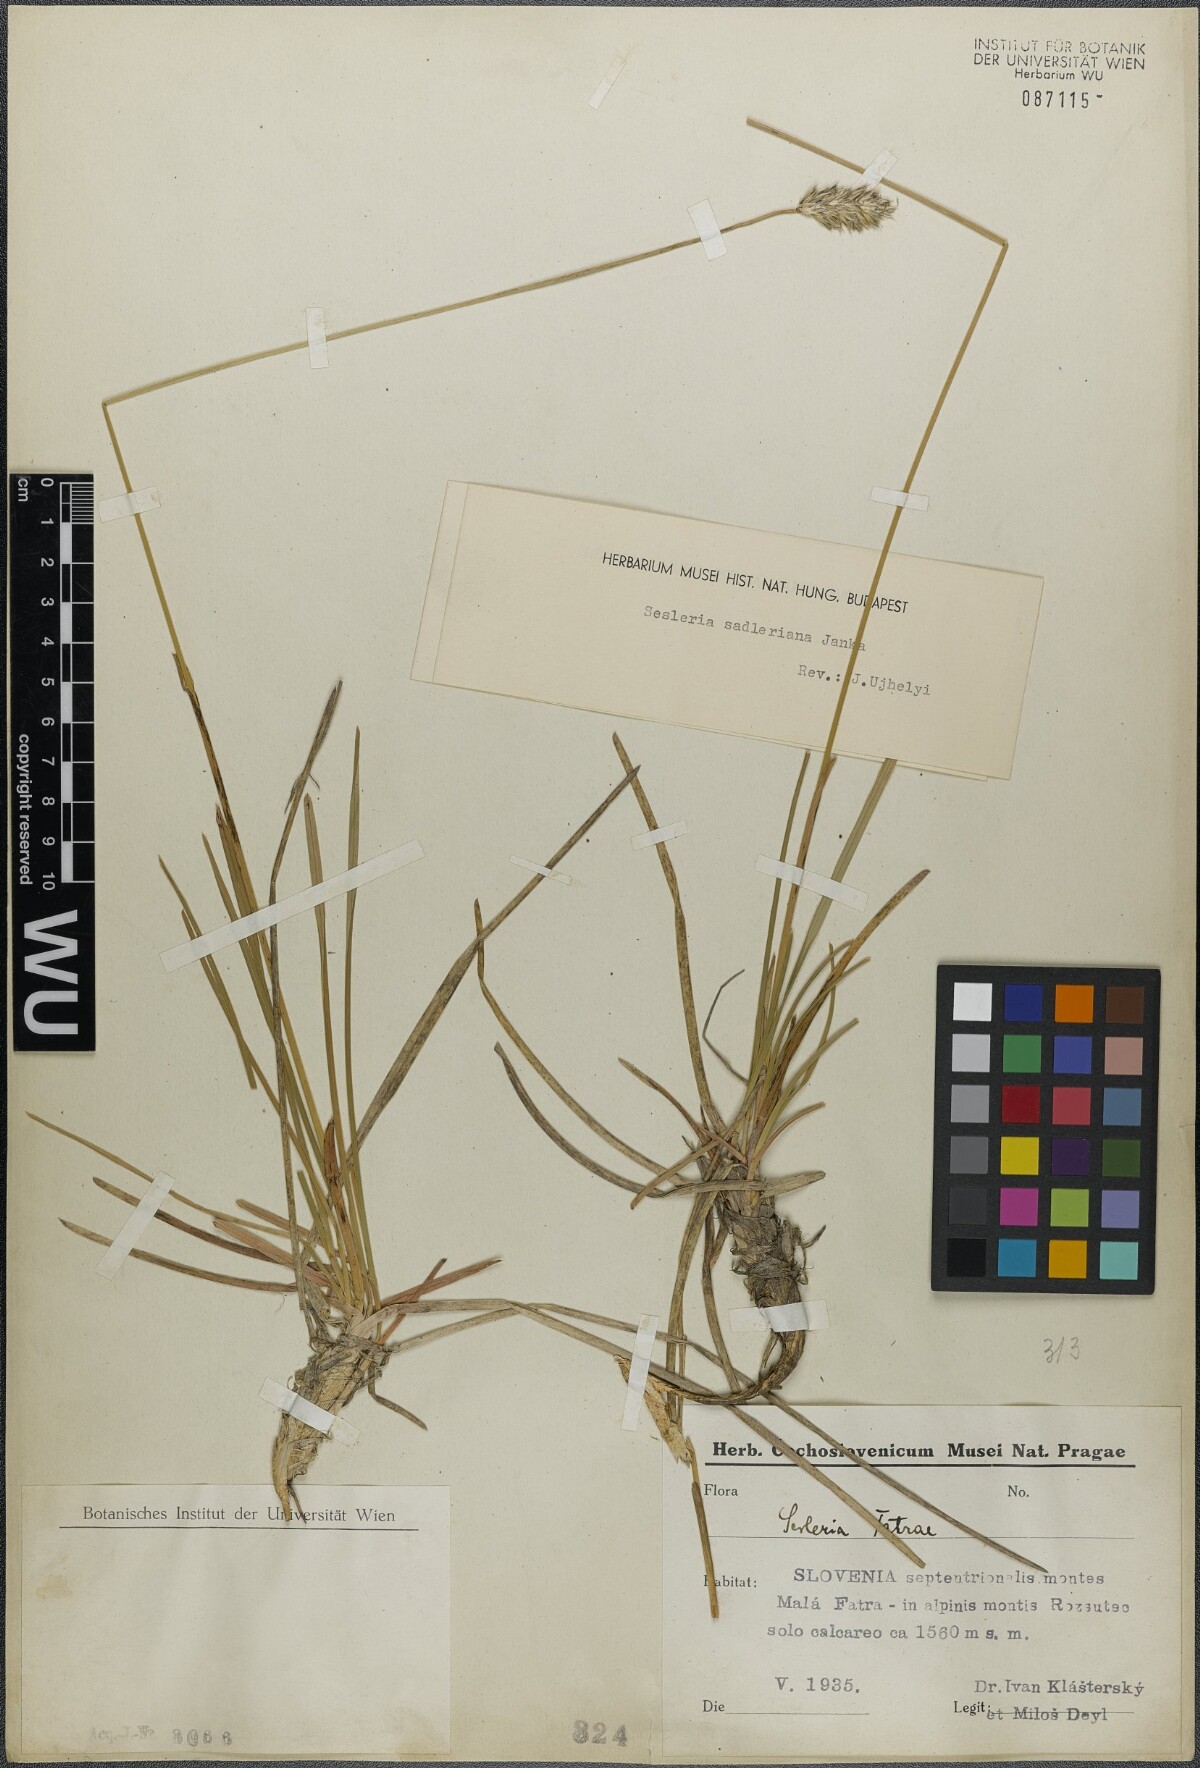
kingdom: Plantae
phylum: Tracheophyta
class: Liliopsida
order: Poales
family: Poaceae
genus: Sesleria
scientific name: Sesleria sadleriana
